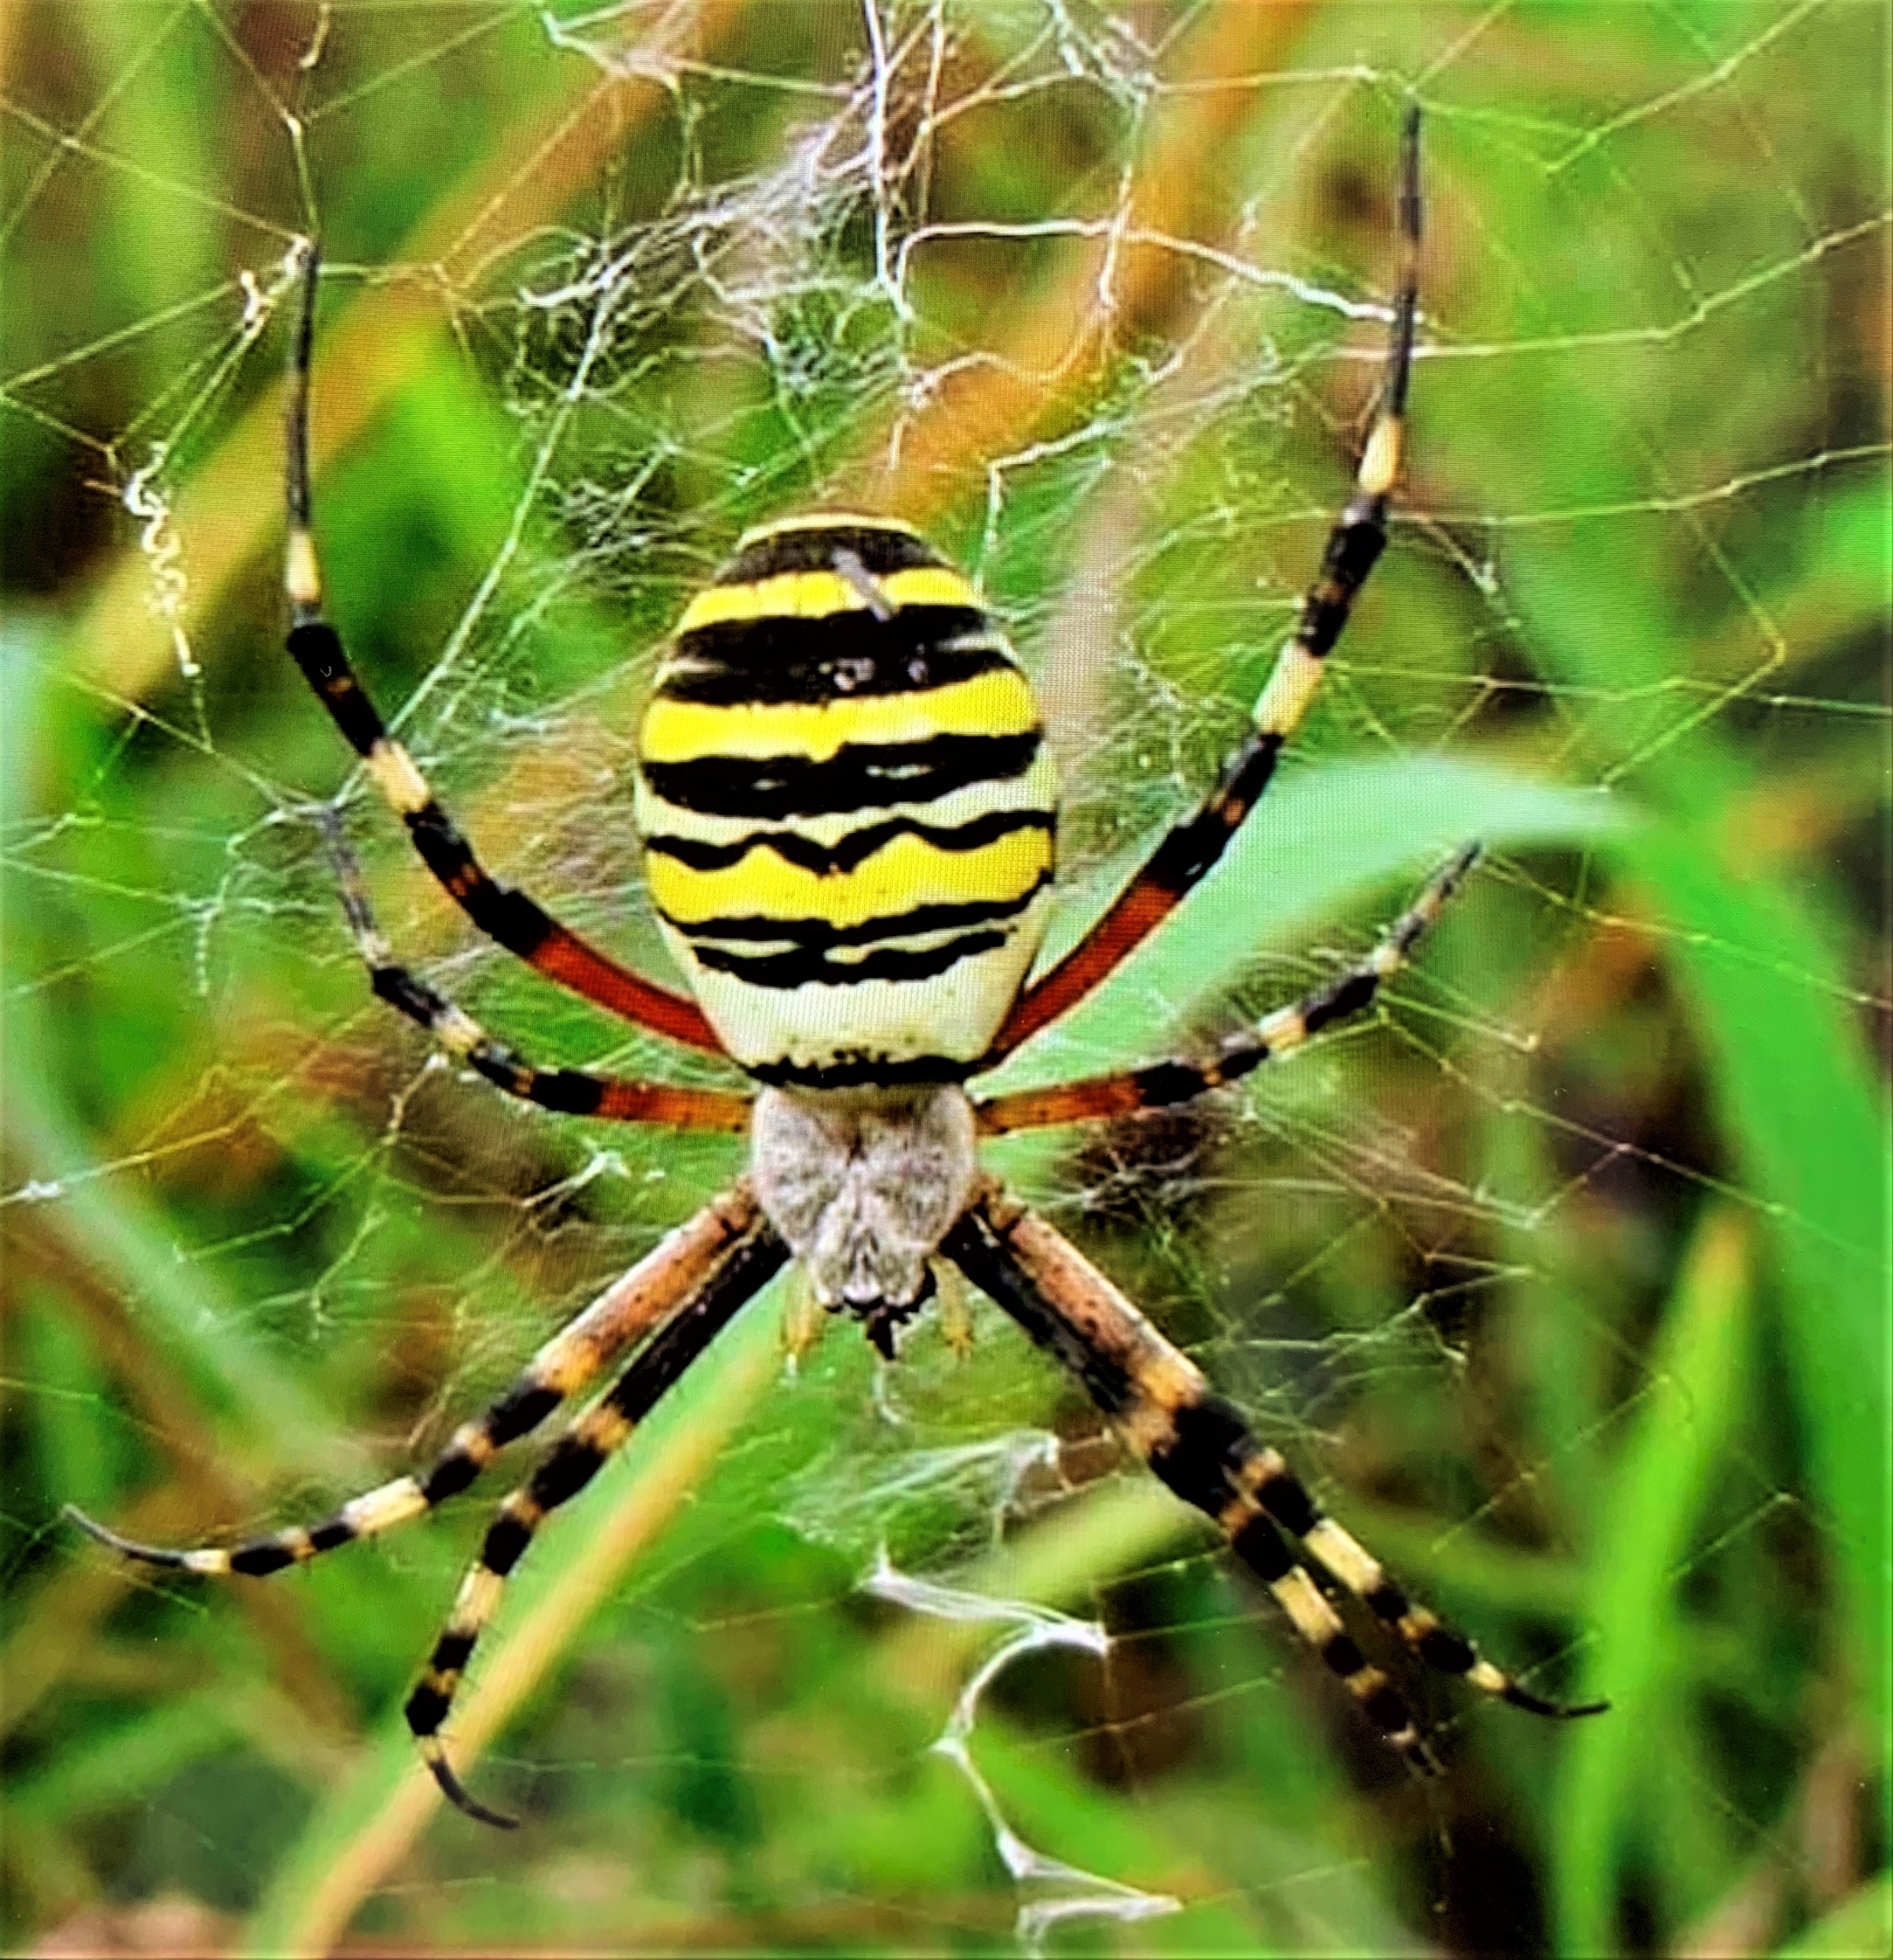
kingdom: Animalia
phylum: Arthropoda
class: Arachnida
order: Araneae
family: Araneidae
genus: Argiope
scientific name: Argiope bruennichi
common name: Hvepseedderkop
